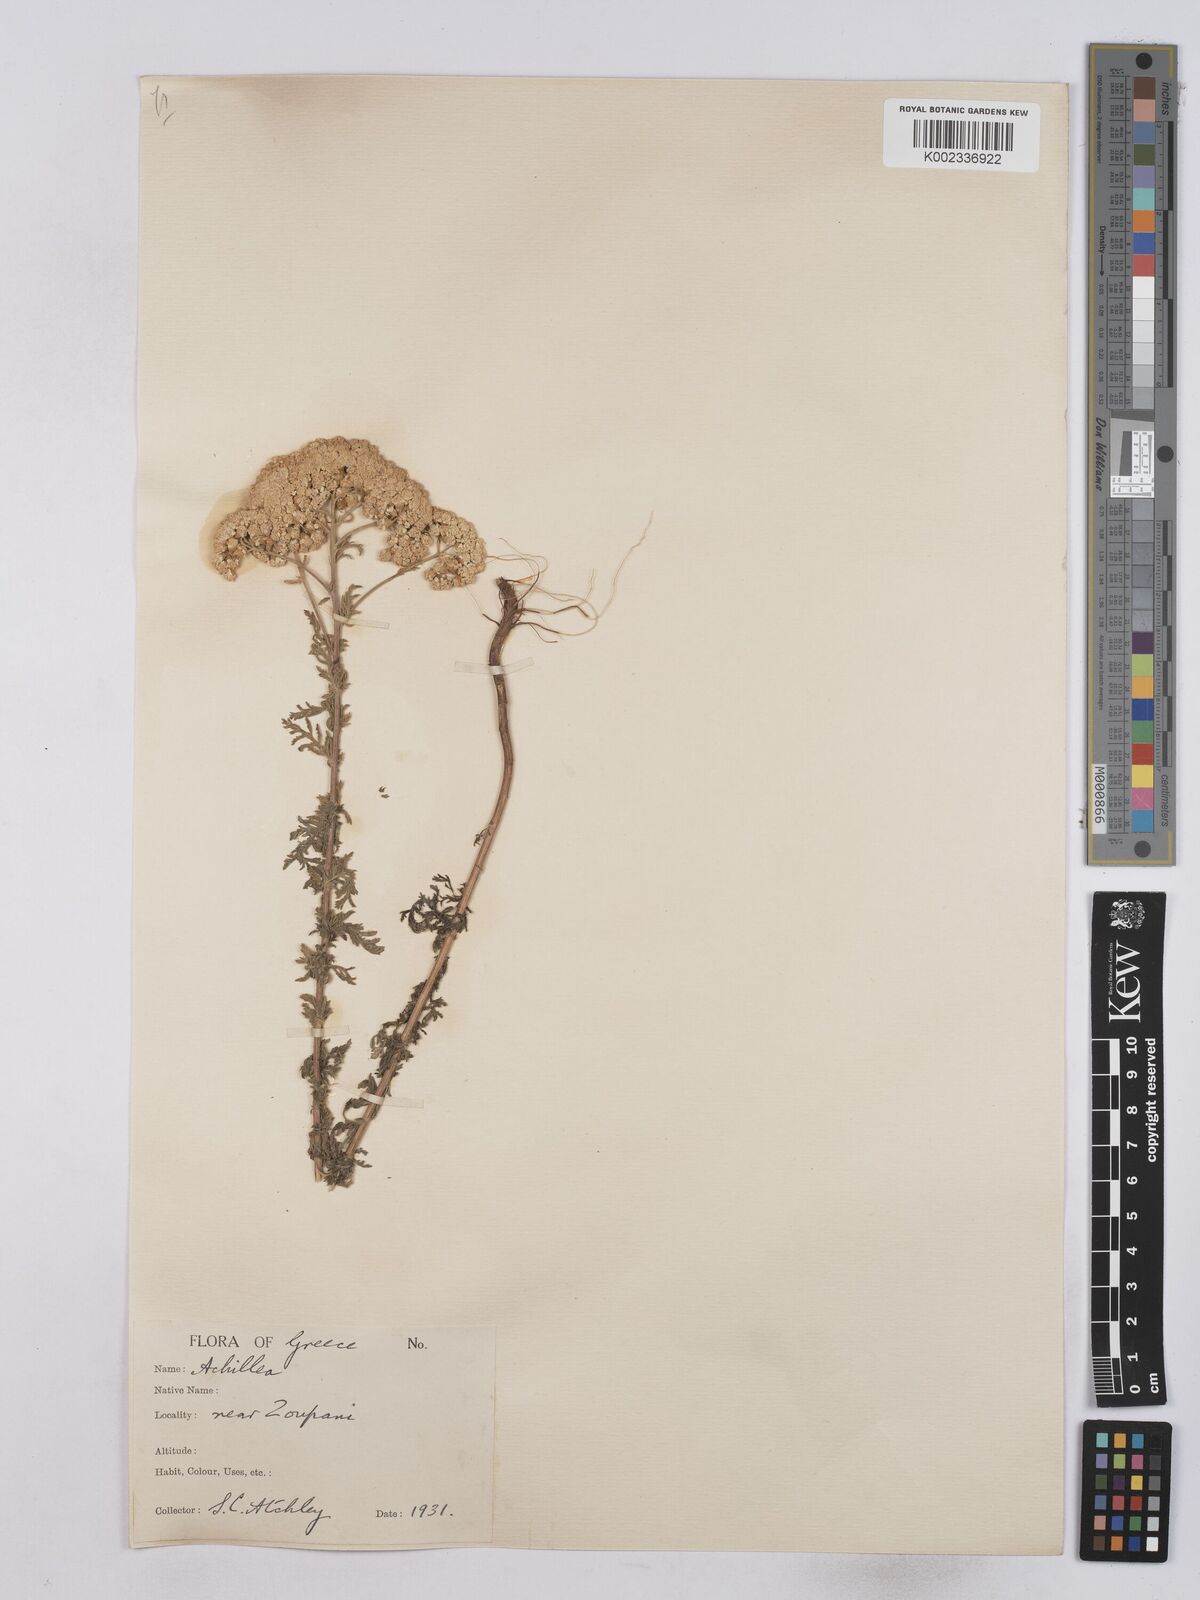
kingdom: Plantae
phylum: Tracheophyta
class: Magnoliopsida
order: Asterales
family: Asteraceae
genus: Achillea
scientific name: Achillea odorata
